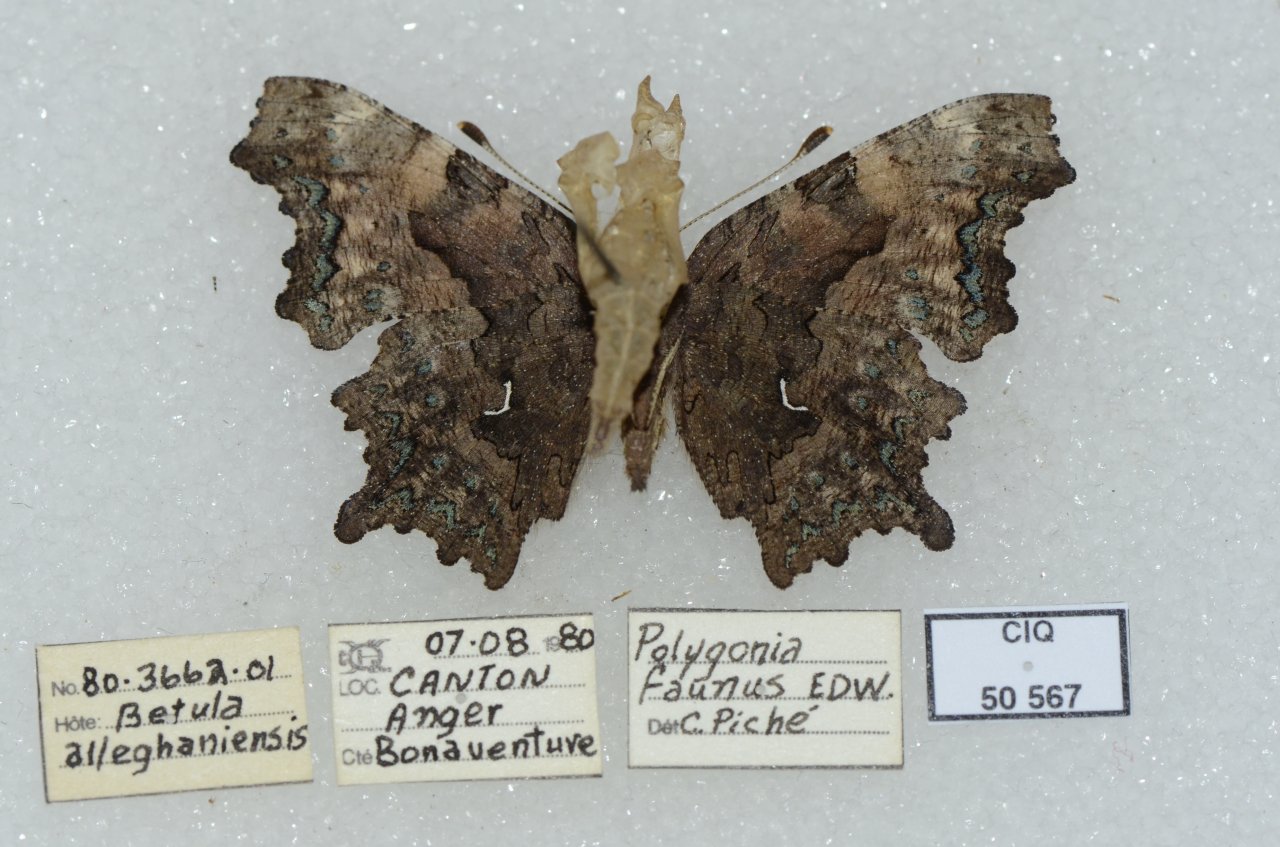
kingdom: Animalia
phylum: Arthropoda
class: Insecta
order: Lepidoptera
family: Nymphalidae
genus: Polygonia
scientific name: Polygonia faunus
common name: Green Comma
